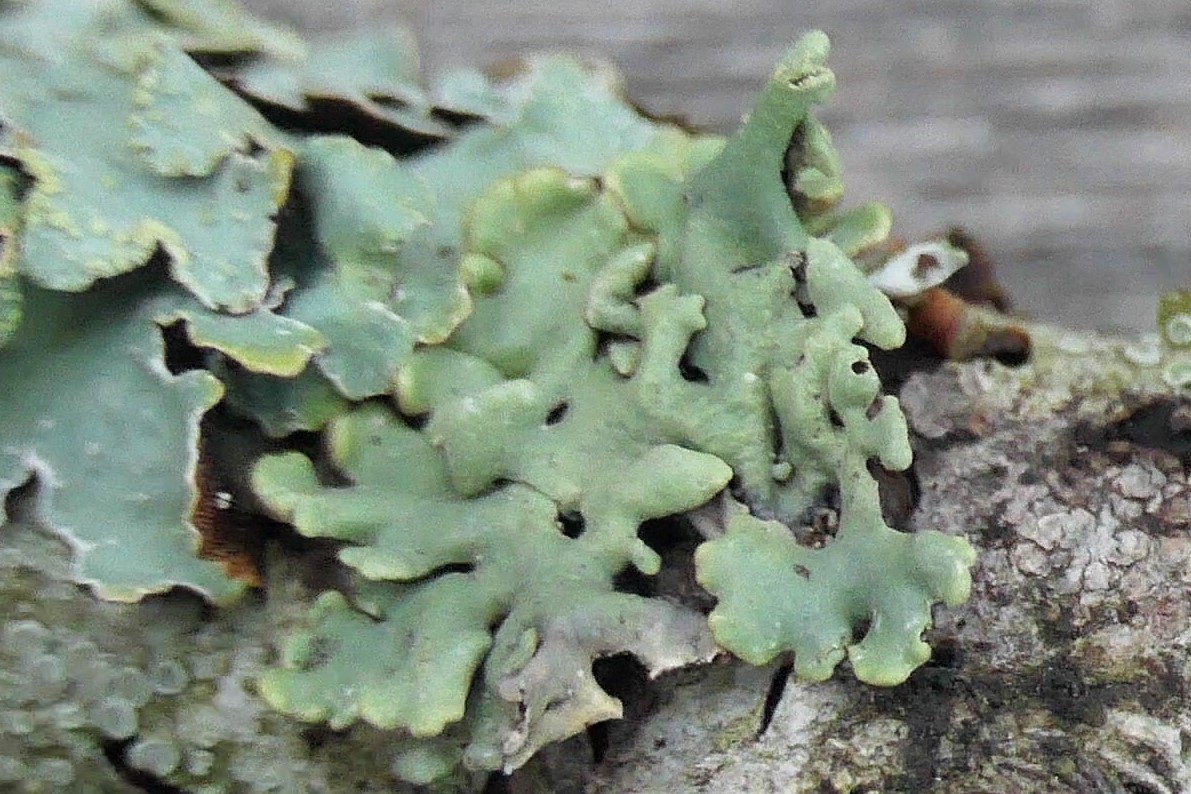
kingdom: Fungi
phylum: Ascomycota
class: Lecanoromycetes
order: Lecanorales
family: Parmeliaceae
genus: Hypogymnia
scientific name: Hypogymnia physodes
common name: almindelig kvistlav
